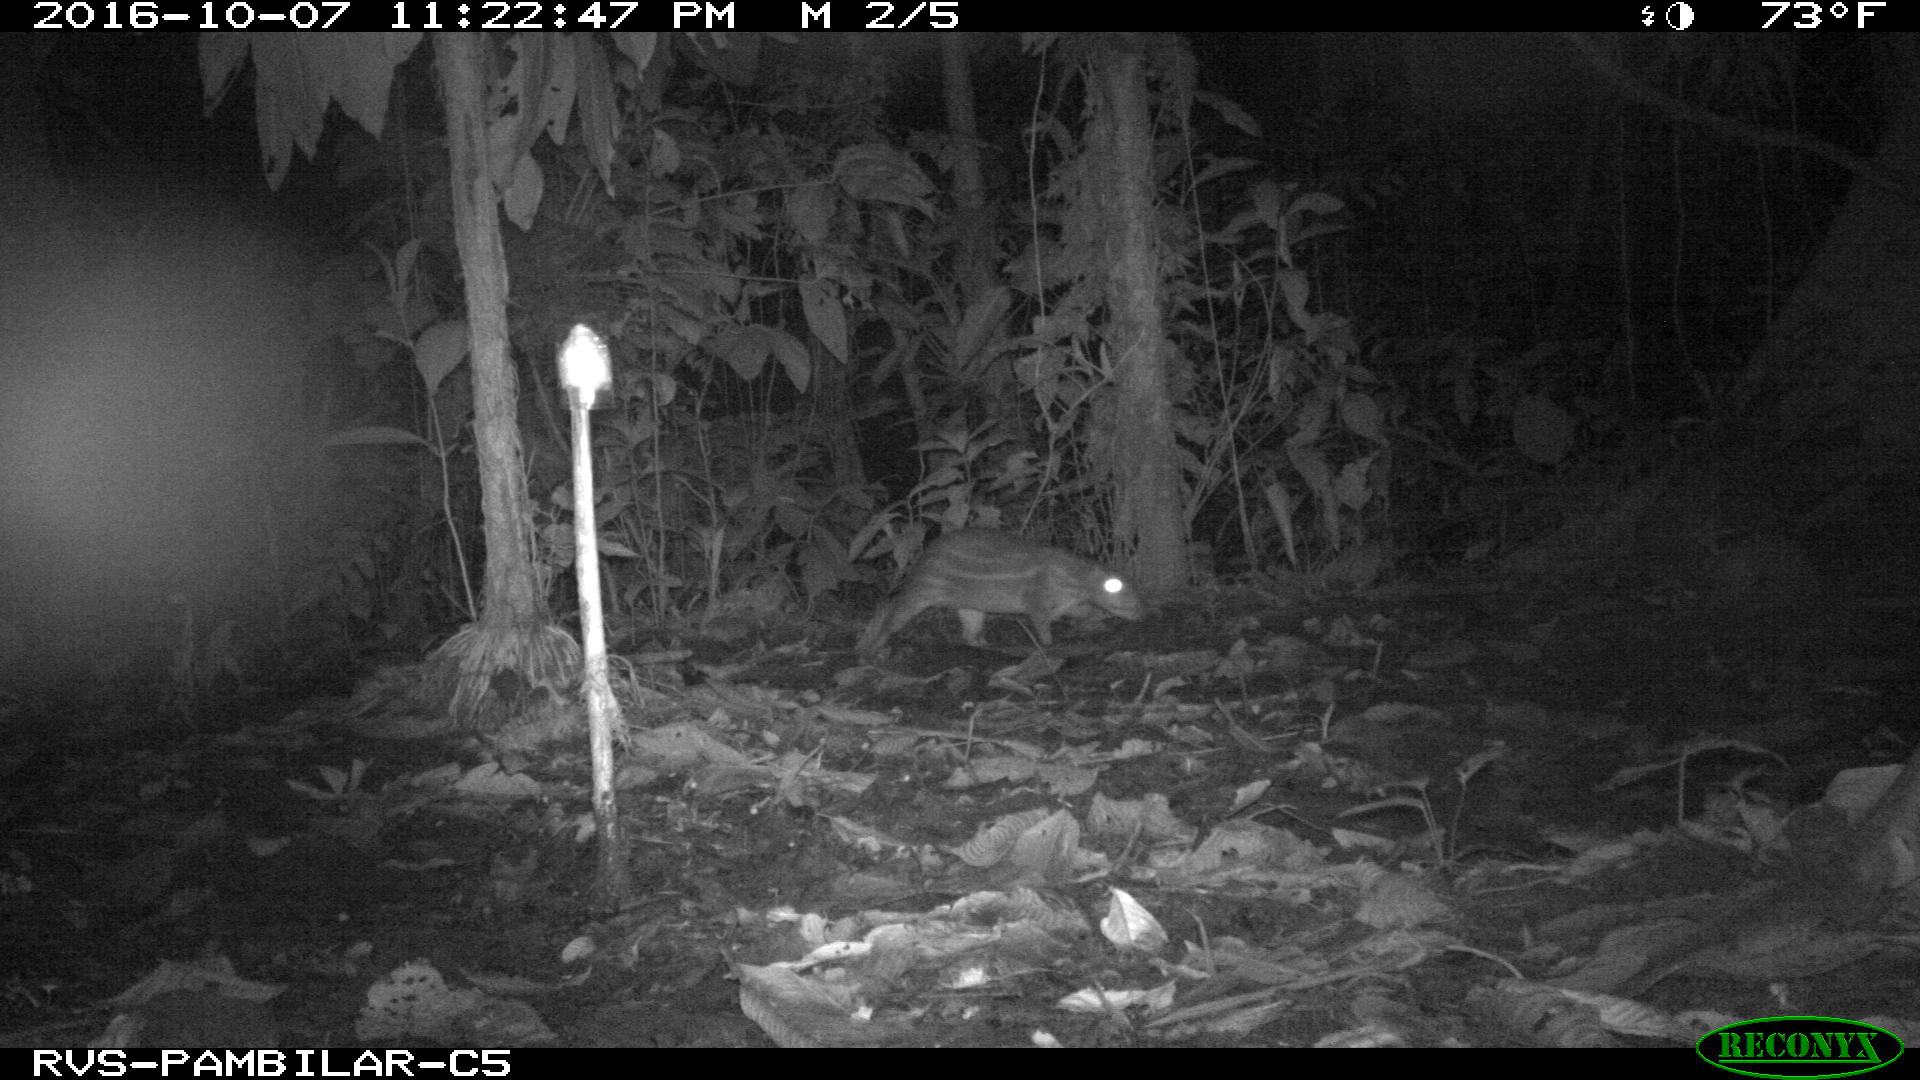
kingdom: Animalia
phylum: Chordata
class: Mammalia
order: Rodentia
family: Cuniculidae
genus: Cuniculus
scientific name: Cuniculus paca
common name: Lowland paca
